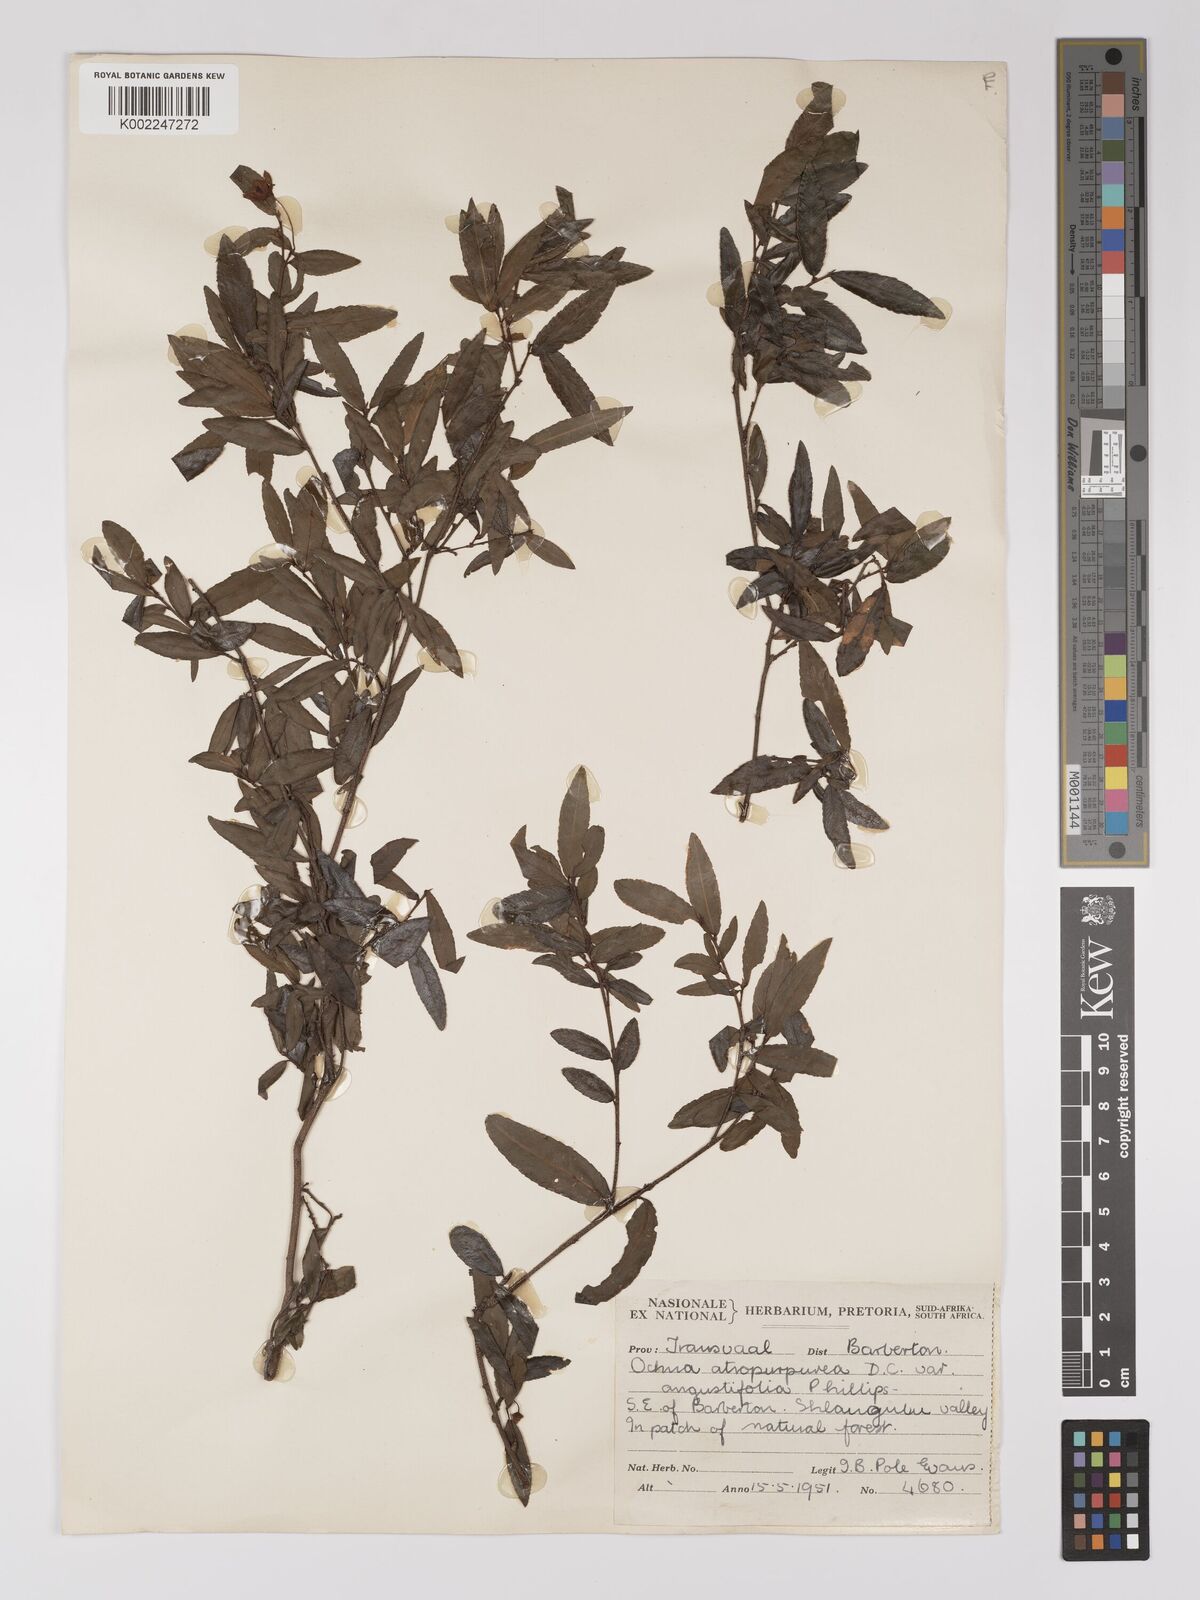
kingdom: Plantae
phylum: Tracheophyta
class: Magnoliopsida
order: Malpighiales
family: Ochnaceae
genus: Ochna
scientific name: Ochna gamostigmata
